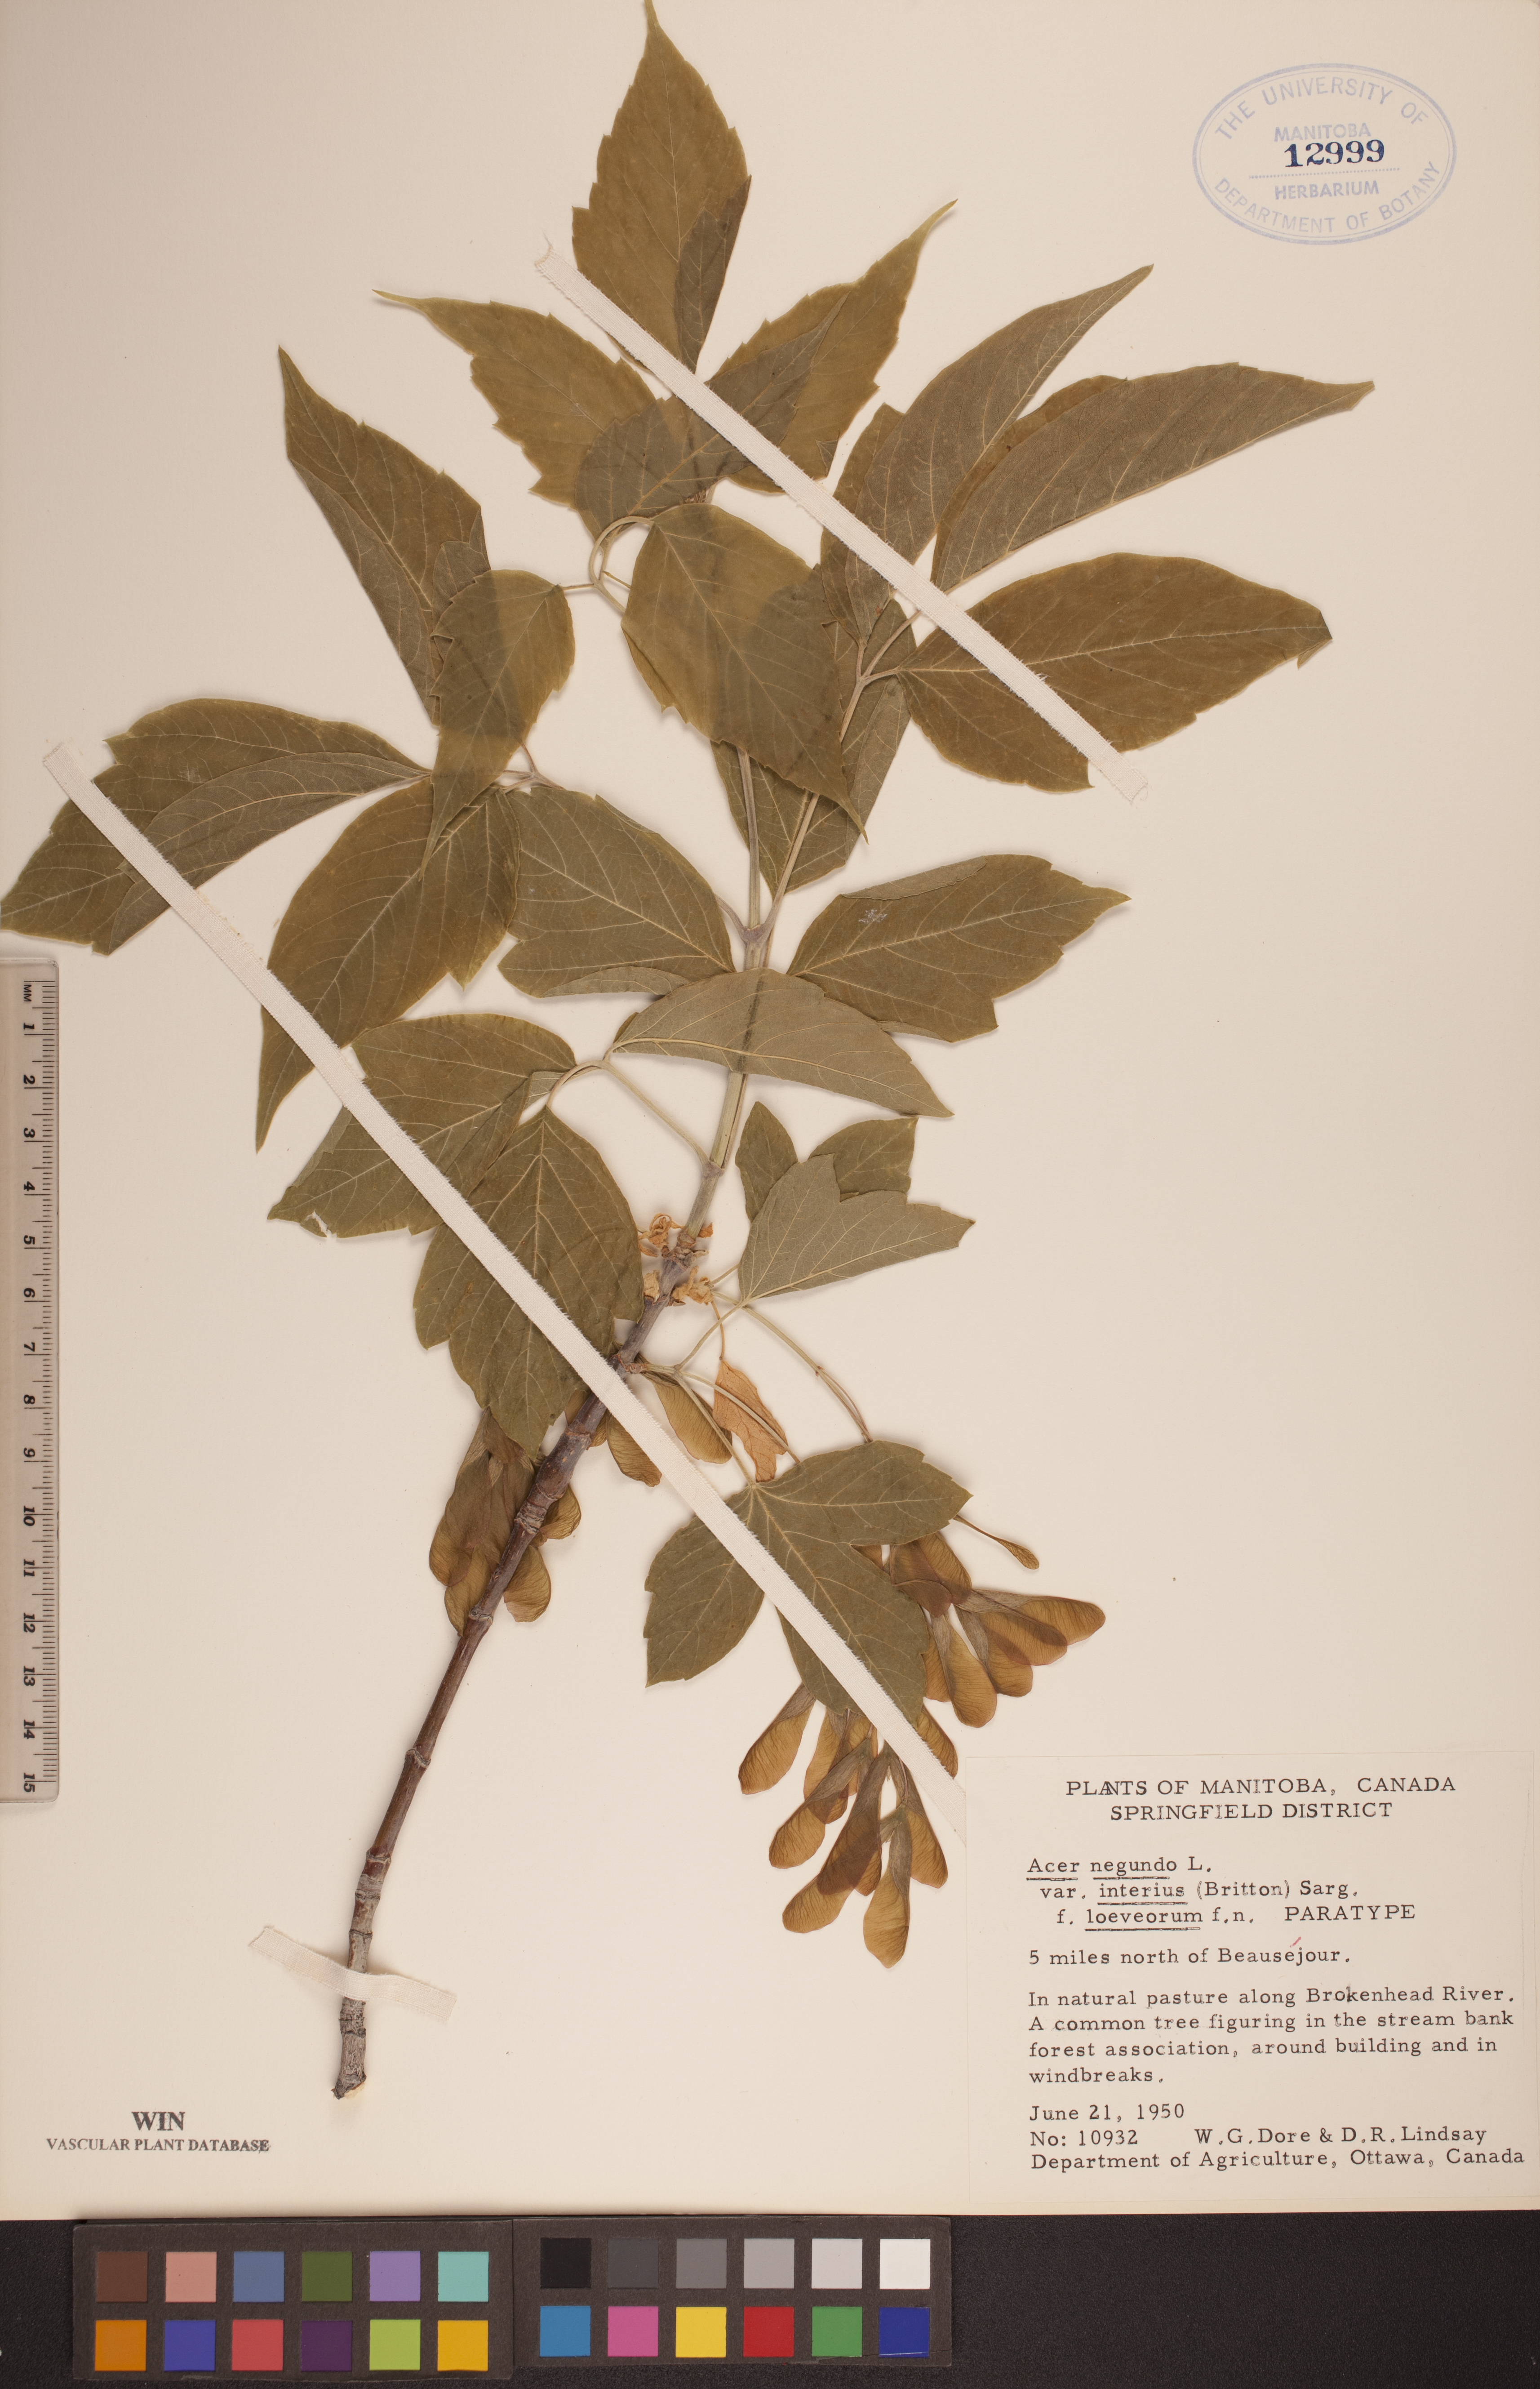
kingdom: Plantae
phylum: Tracheophyta
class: Magnoliopsida
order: Sapindales
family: Sapindaceae
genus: Acer
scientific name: Acer negundo
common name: Ashleaf maple
